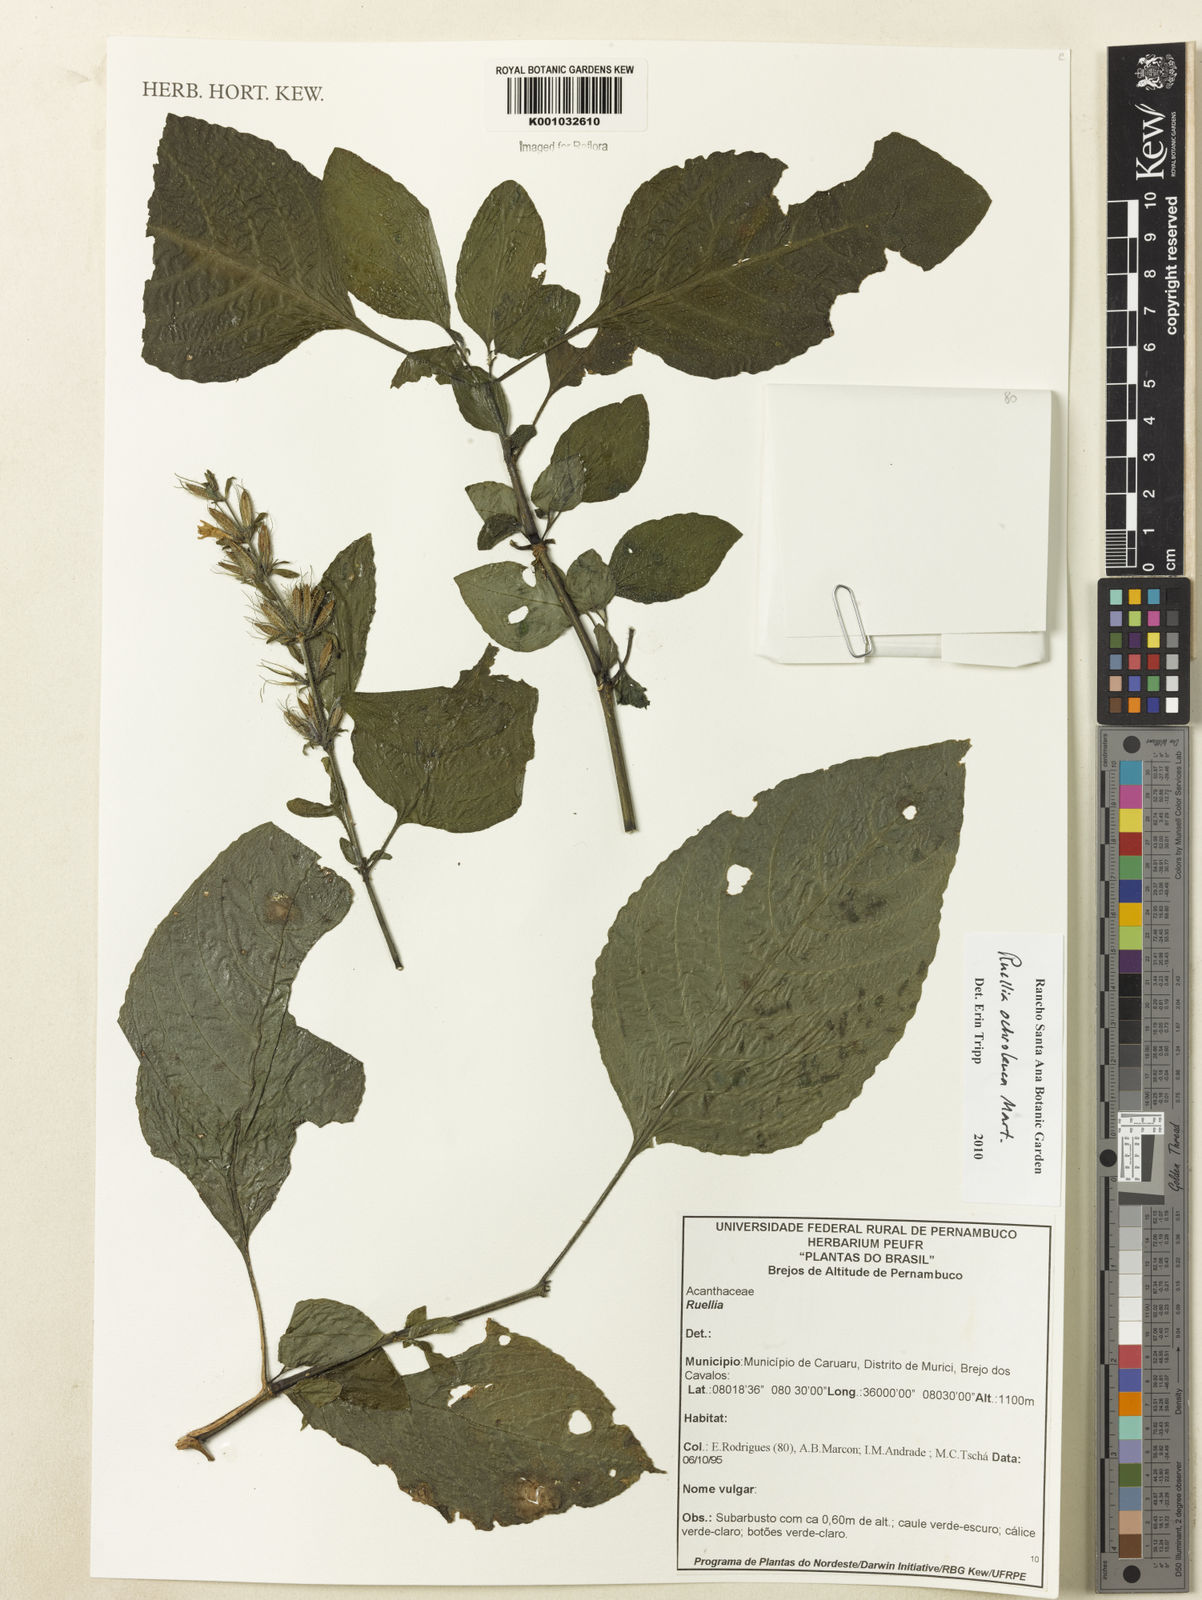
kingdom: Plantae
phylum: Tracheophyta
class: Magnoliopsida
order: Lamiales
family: Acanthaceae
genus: Ruellia
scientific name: Ruellia
